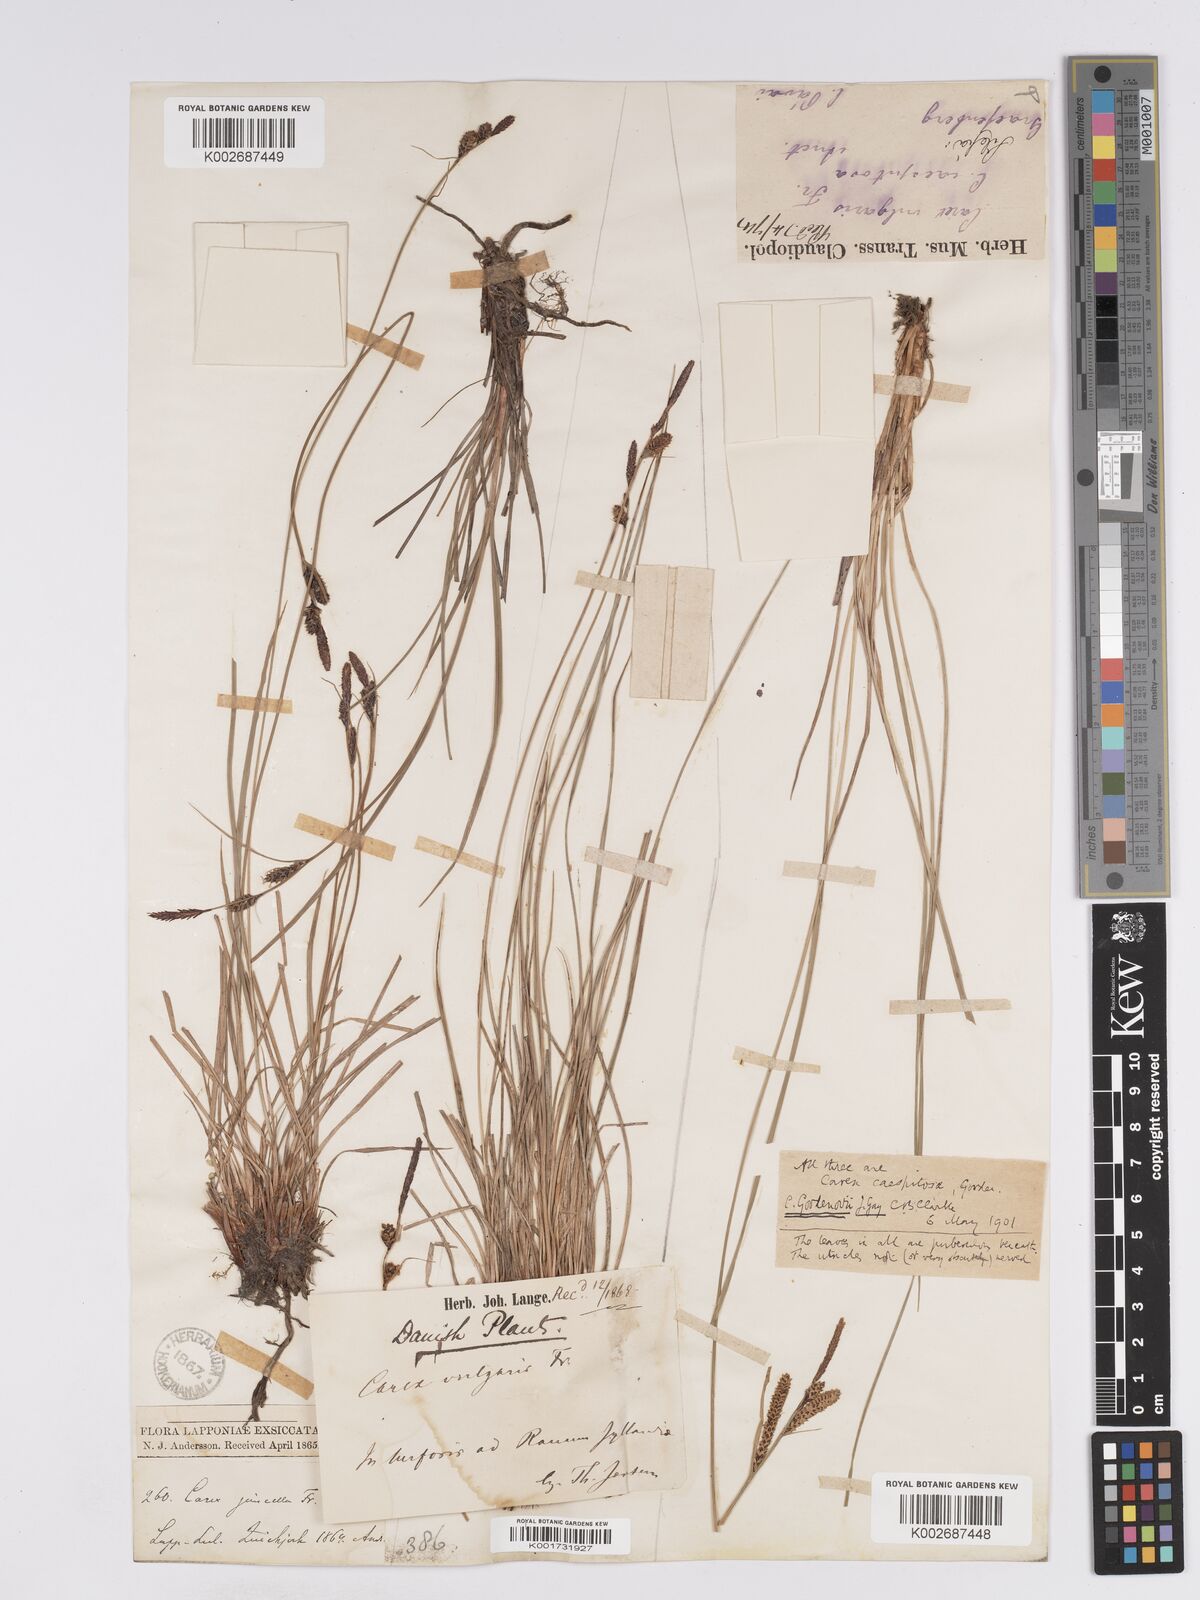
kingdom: Plantae
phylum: Tracheophyta
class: Liliopsida
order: Poales
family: Cyperaceae
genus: Carex
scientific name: Carex nigra
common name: Common sedge
